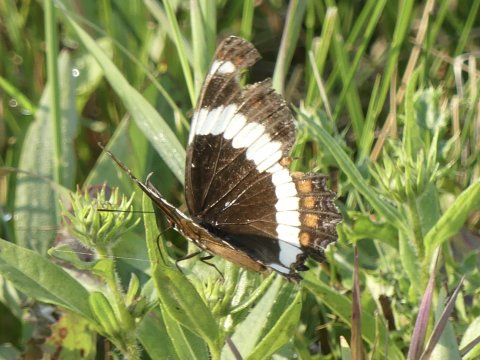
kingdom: Animalia
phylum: Arthropoda
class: Insecta
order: Lepidoptera
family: Nymphalidae
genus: Limenitis
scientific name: Limenitis arthemis
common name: Red-spotted Admiral
